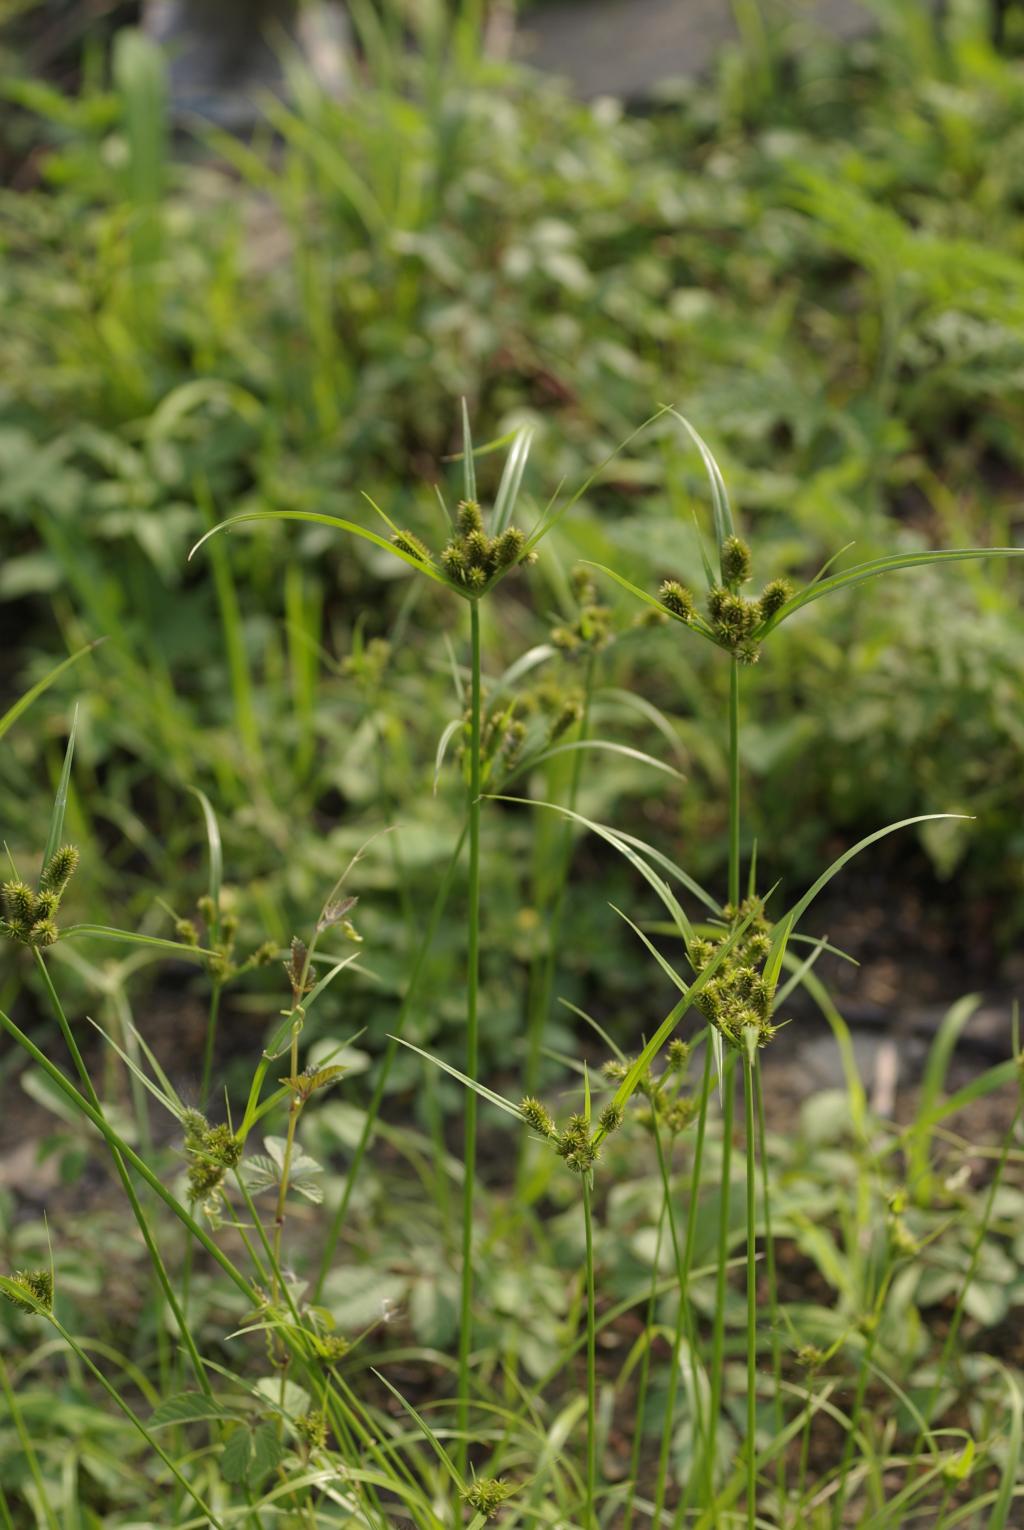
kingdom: Plantae
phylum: Tracheophyta
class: Liliopsida
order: Poales
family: Cyperaceae
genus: Cyperus
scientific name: Cyperus cyperinus
